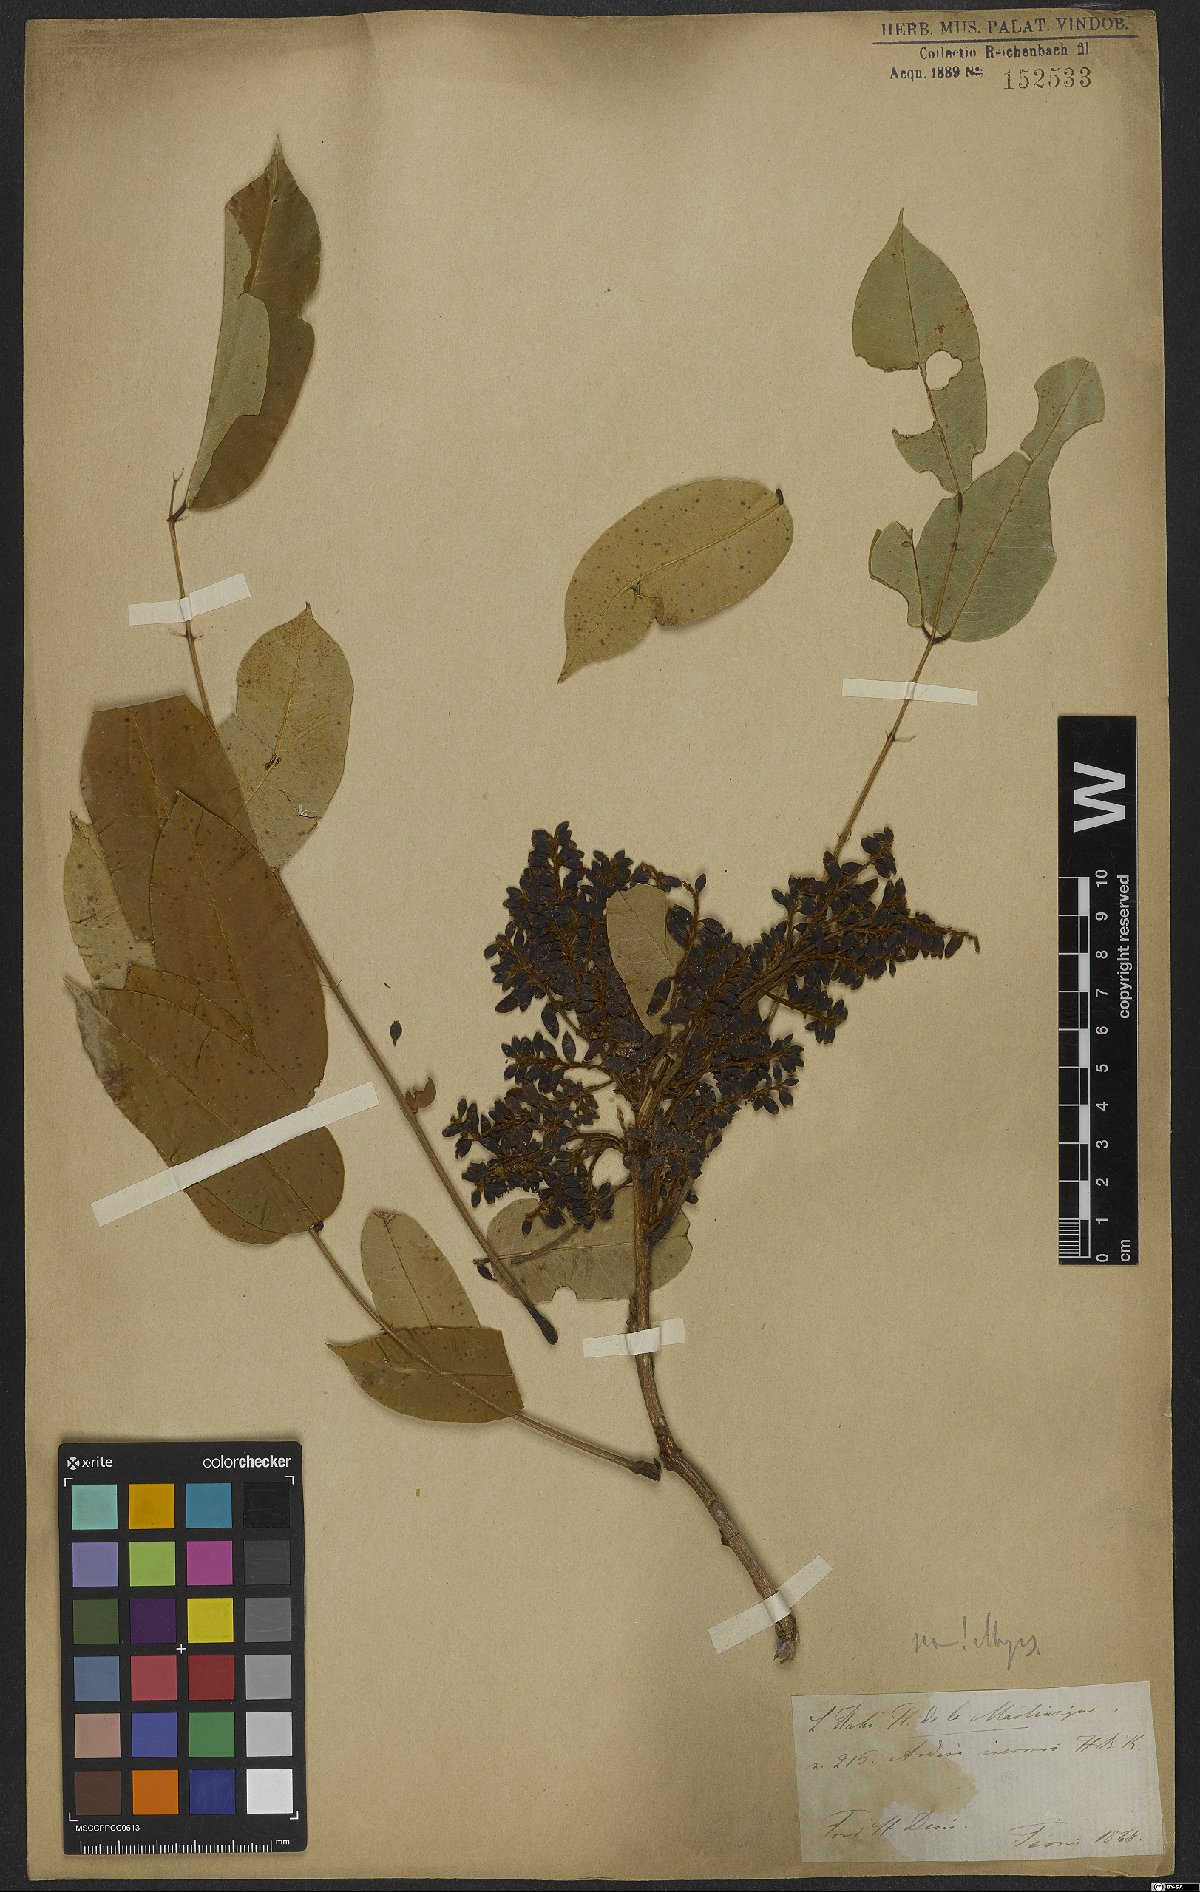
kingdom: Plantae
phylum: Tracheophyta
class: Magnoliopsida
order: Fabales
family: Fabaceae
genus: Andira
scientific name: Andira inermis
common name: Angelin
